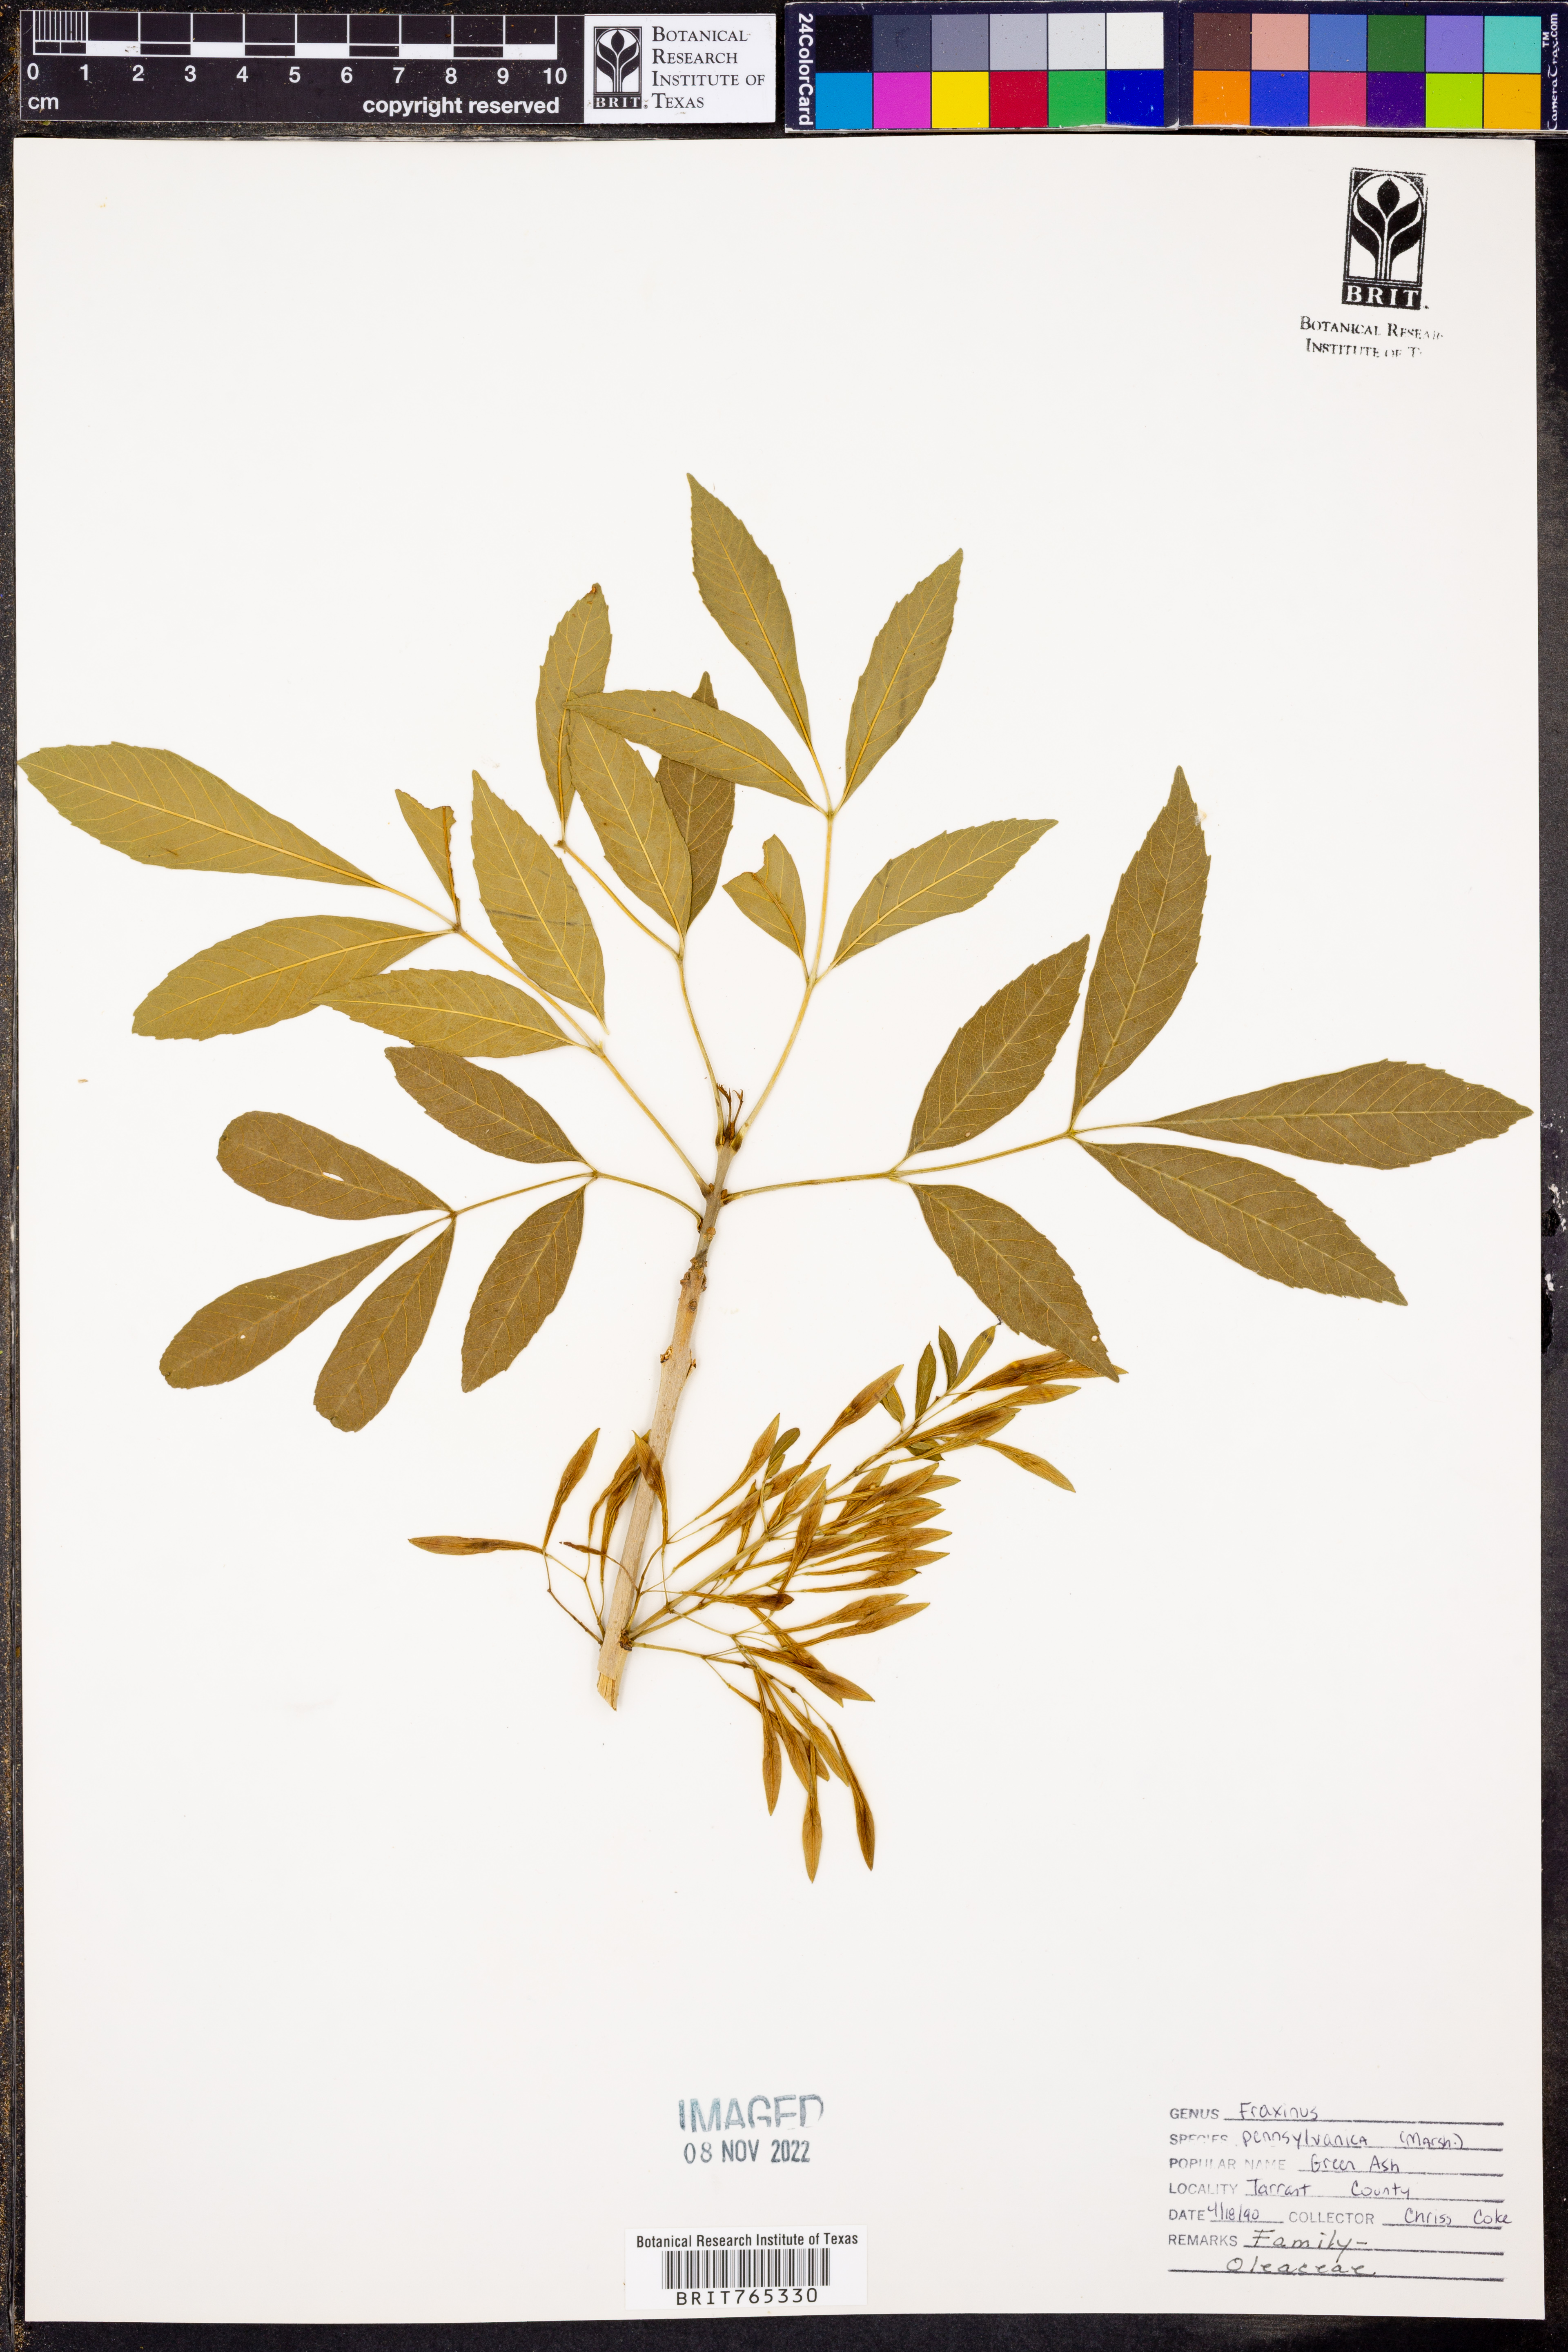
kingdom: Plantae
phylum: Tracheophyta
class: Magnoliopsida
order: Lamiales
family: Oleaceae
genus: Fraxinus
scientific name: Fraxinus pennsylvanica
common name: Green ash
